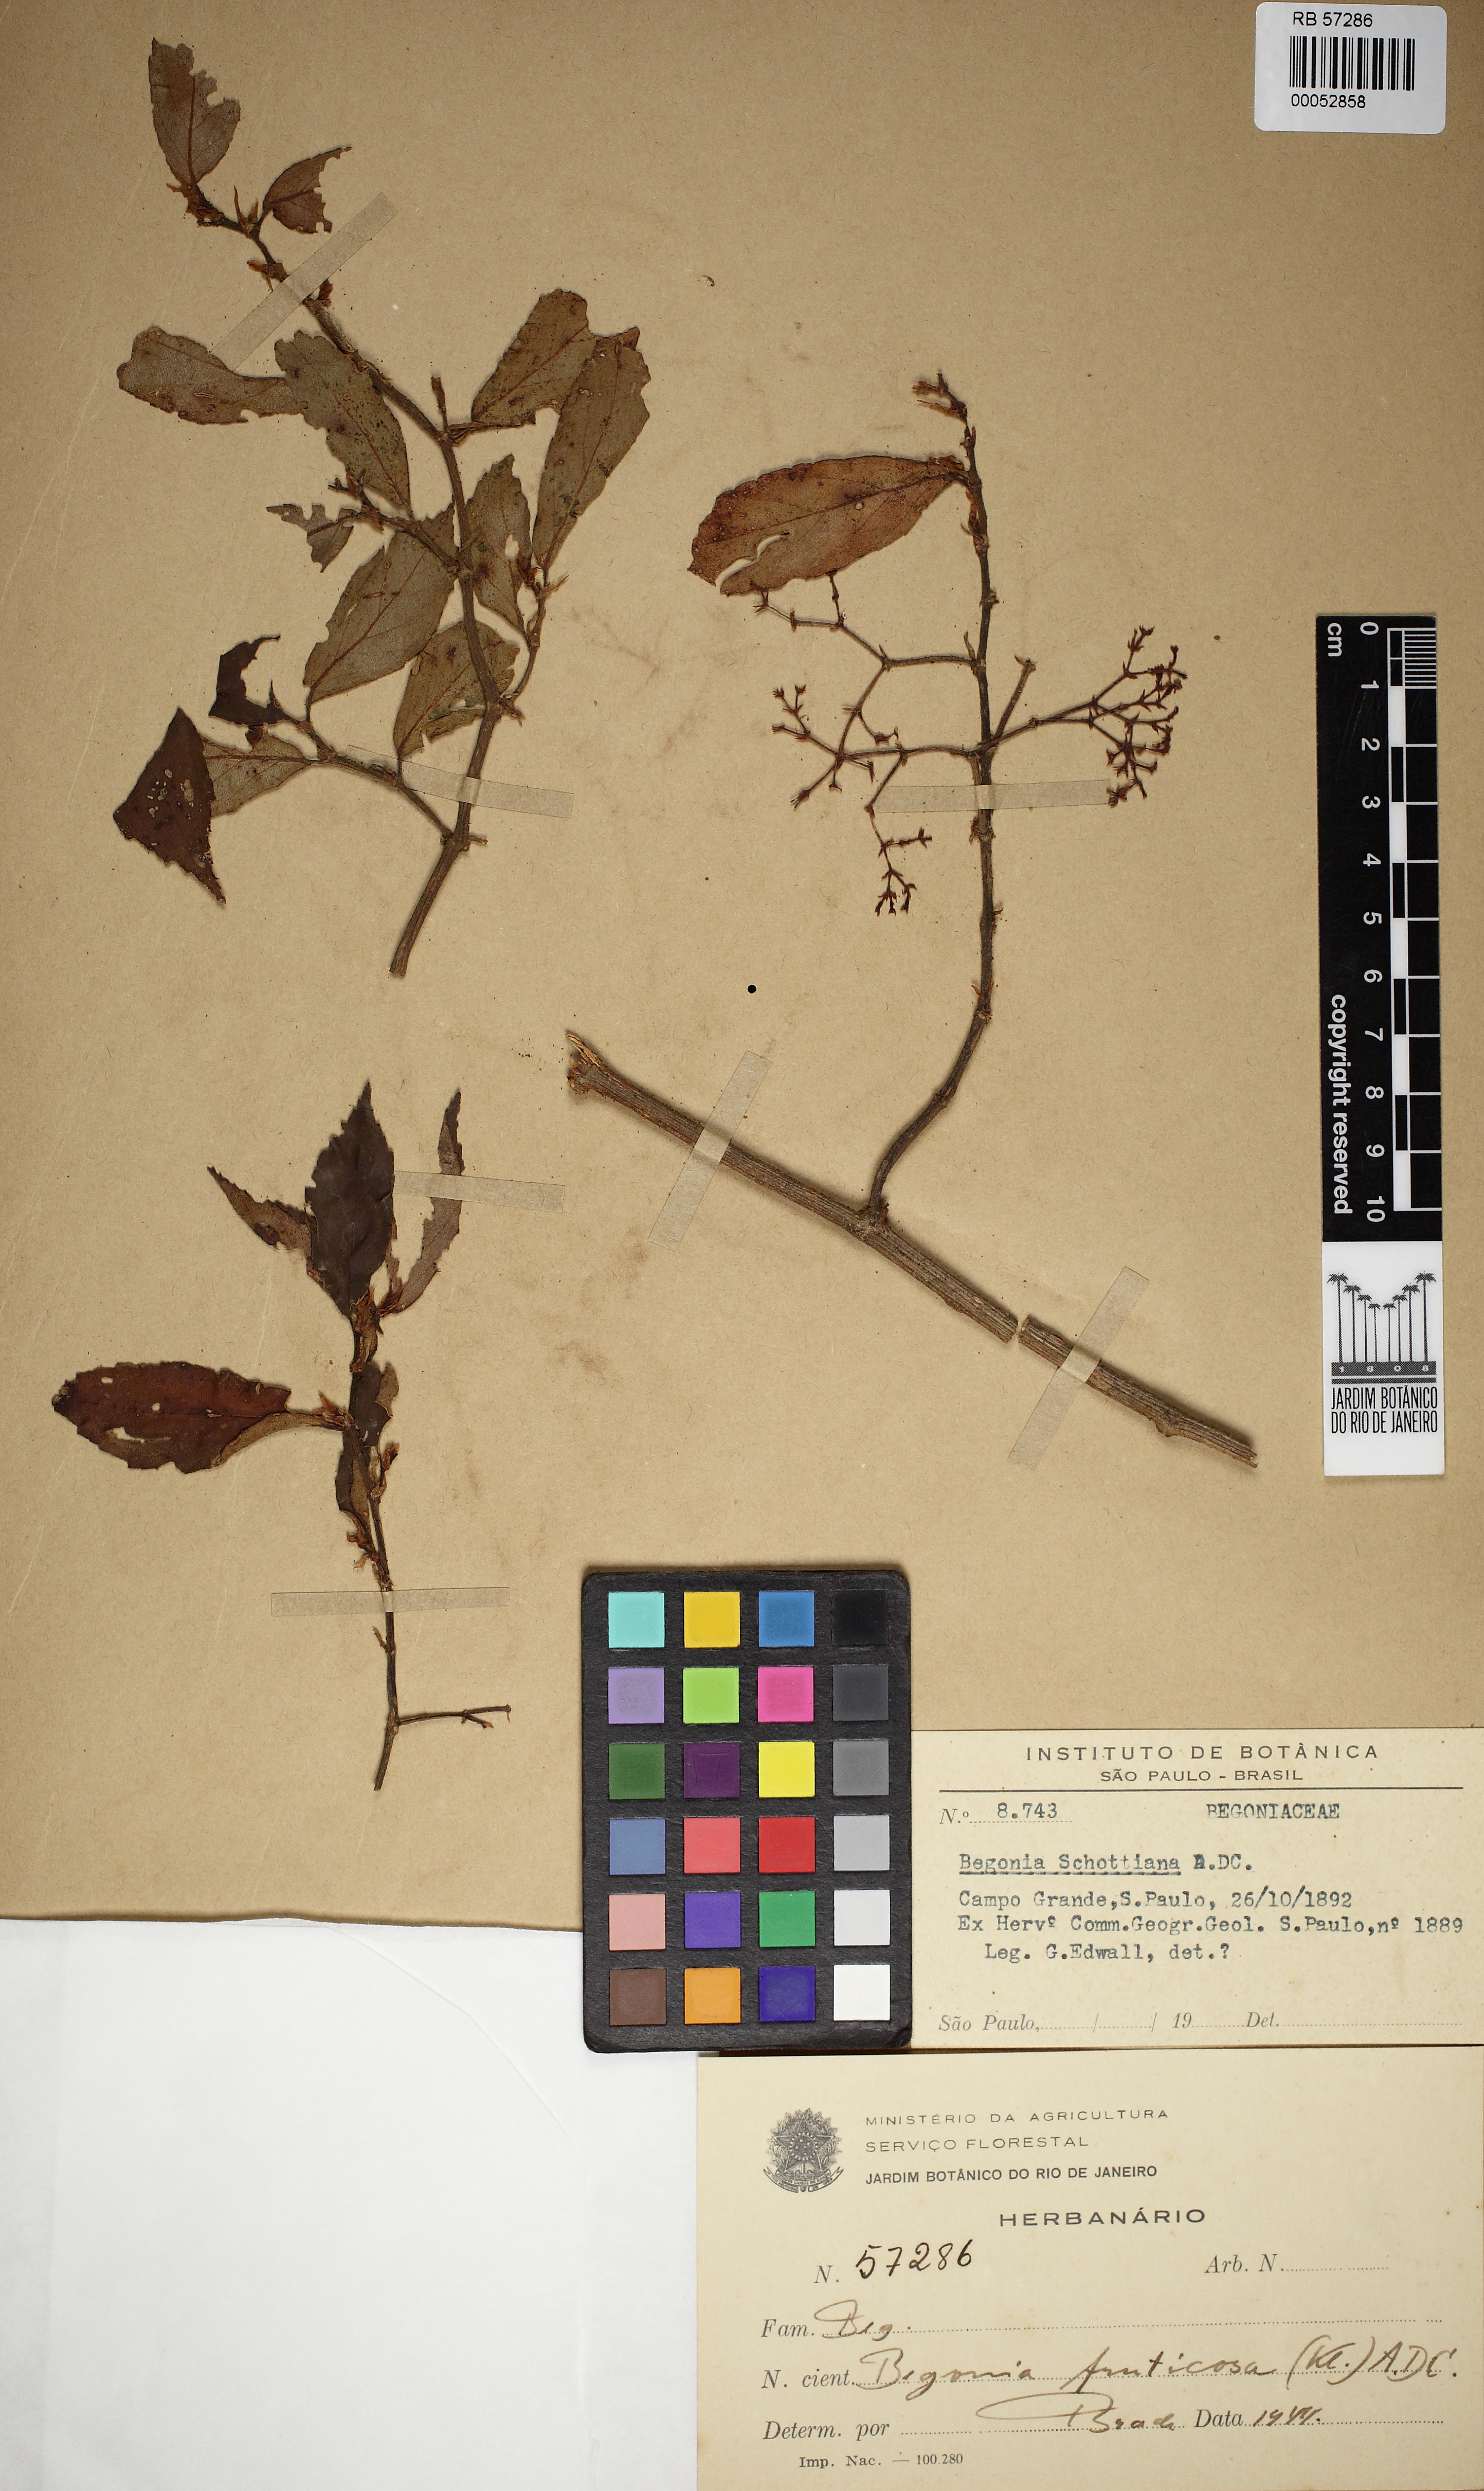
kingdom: Plantae
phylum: Tracheophyta
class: Magnoliopsida
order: Cucurbitales
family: Begoniaceae
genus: Begonia
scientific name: Begonia fruticosa
